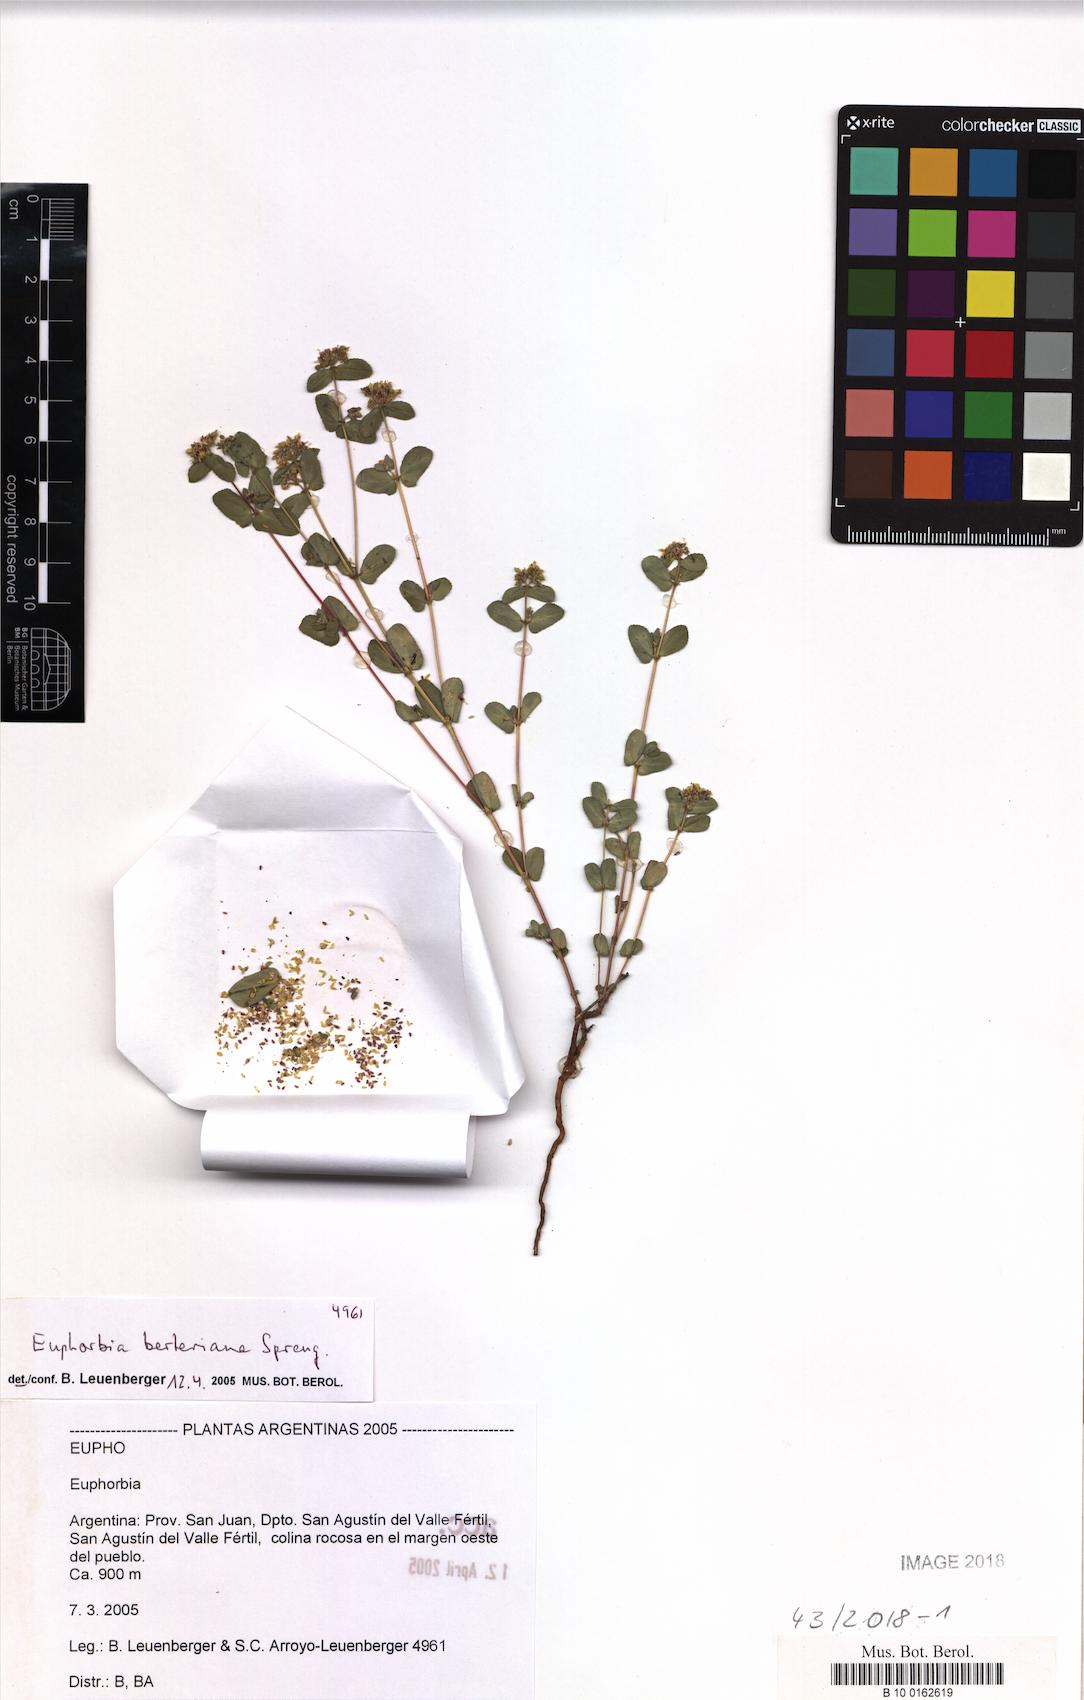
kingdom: Plantae
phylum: Tracheophyta
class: Magnoliopsida
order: Malpighiales
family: Euphorbiaceae
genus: Euphorbia
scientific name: Euphorbia berteroana
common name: Bertero's sandmat
